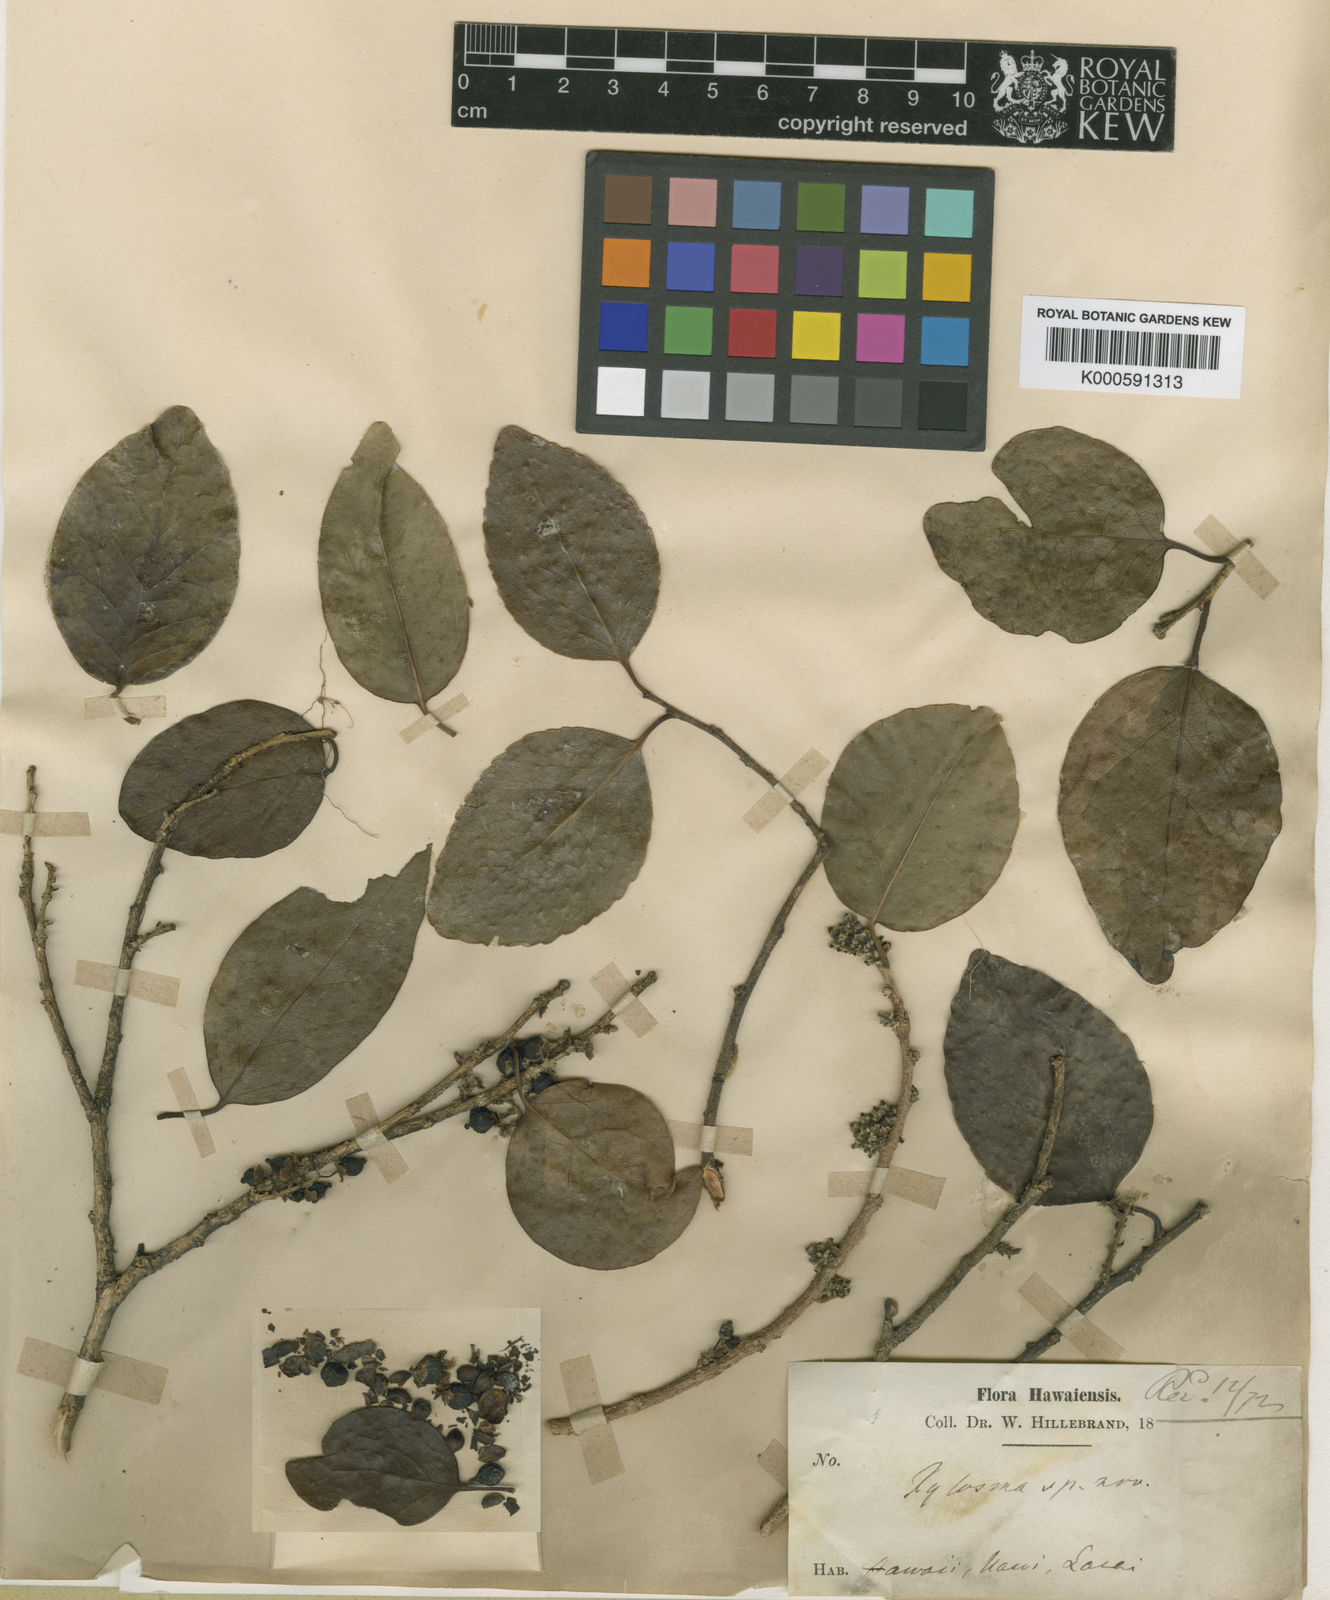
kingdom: Plantae
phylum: Tracheophyta
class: Magnoliopsida
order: Malpighiales
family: Salicaceae
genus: Xylosma
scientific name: Xylosma hawaiense
